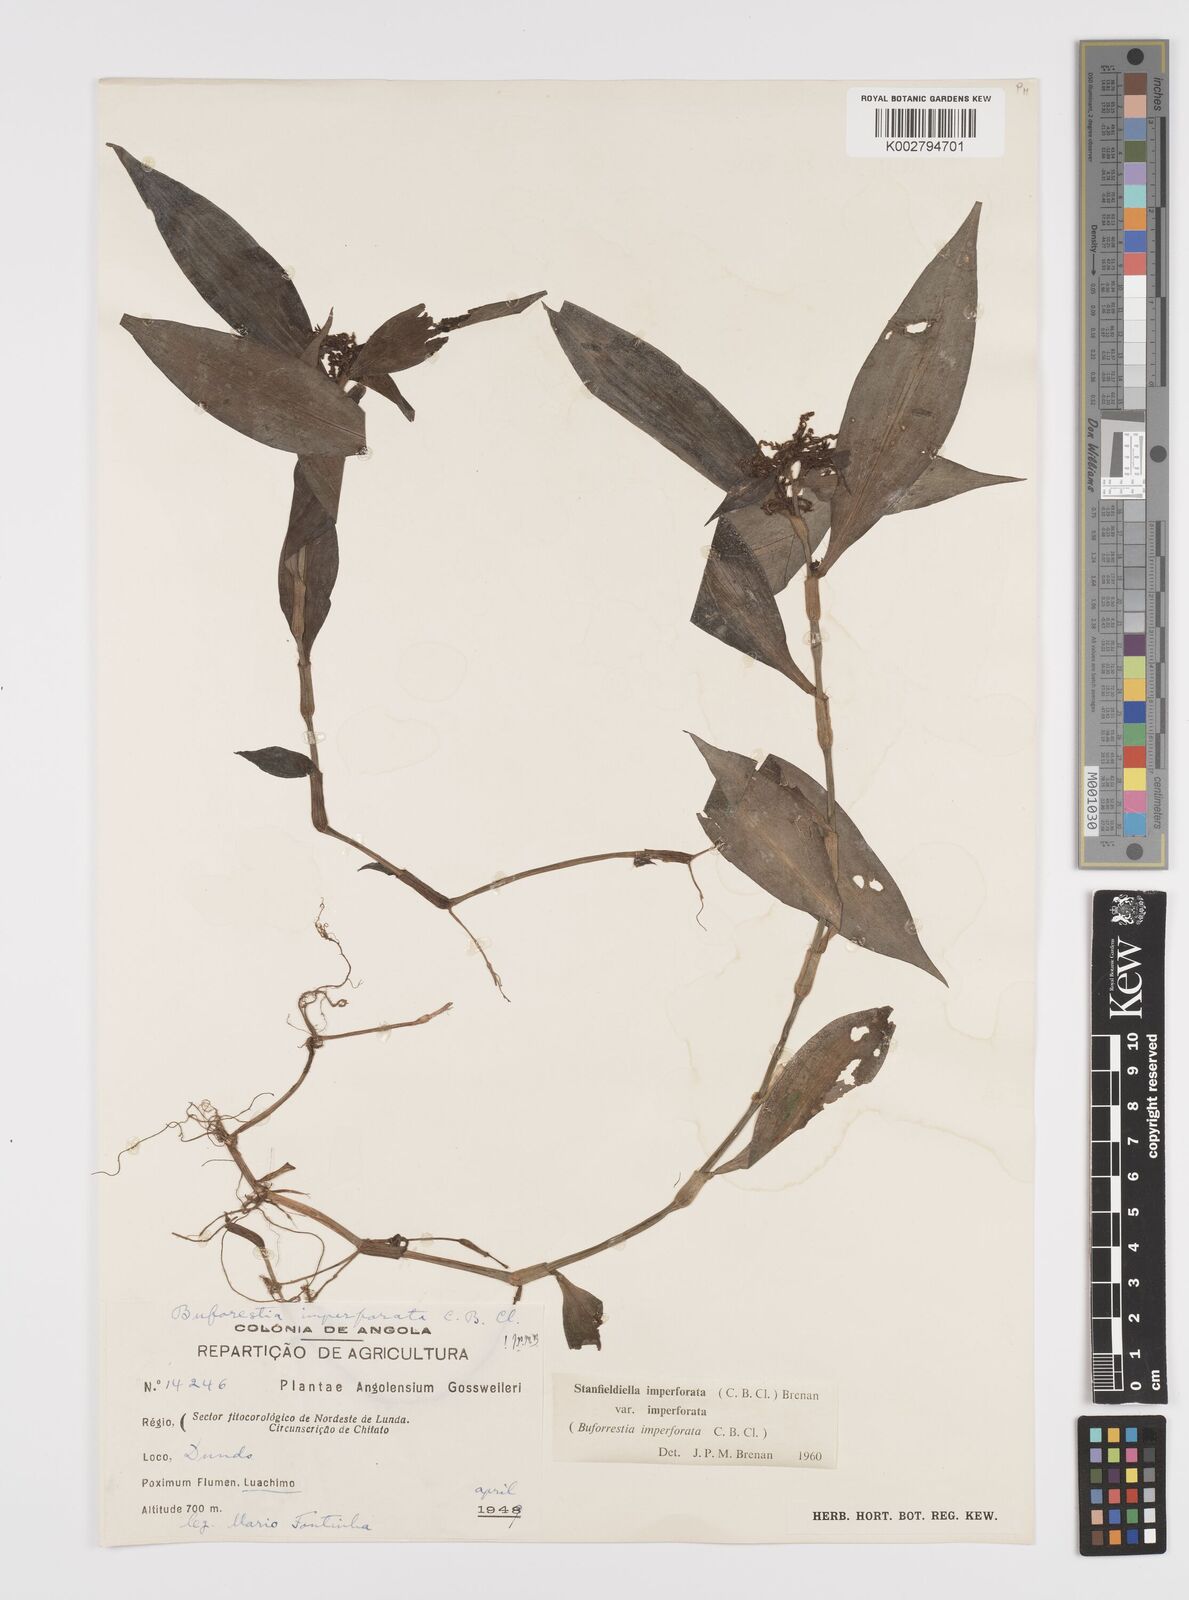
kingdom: Plantae
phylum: Tracheophyta
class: Liliopsida
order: Commelinales
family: Commelinaceae
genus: Stanfieldiella
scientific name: Stanfieldiella imperforata
